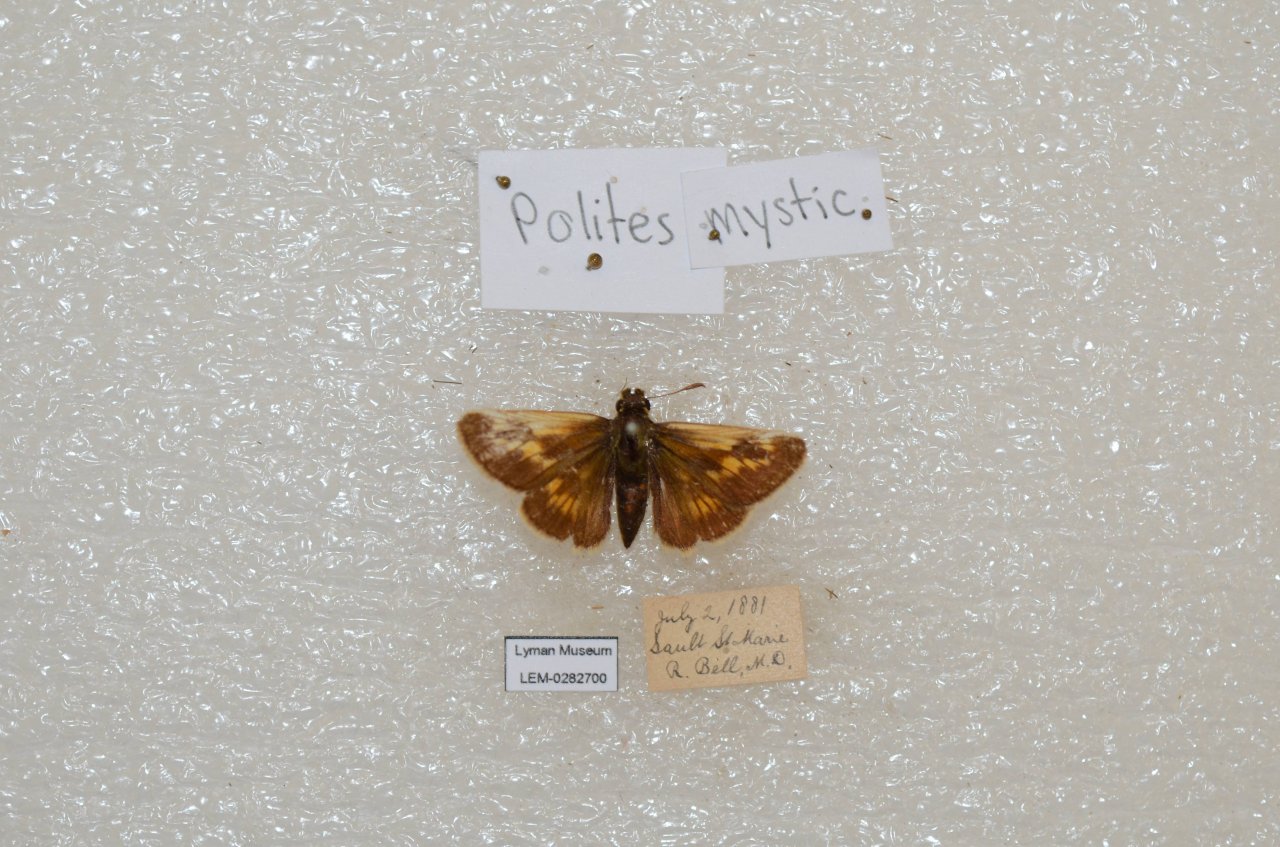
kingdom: Animalia
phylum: Arthropoda
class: Insecta
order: Lepidoptera
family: Hesperiidae
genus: Polites
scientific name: Polites
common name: Long Dash Skipper
